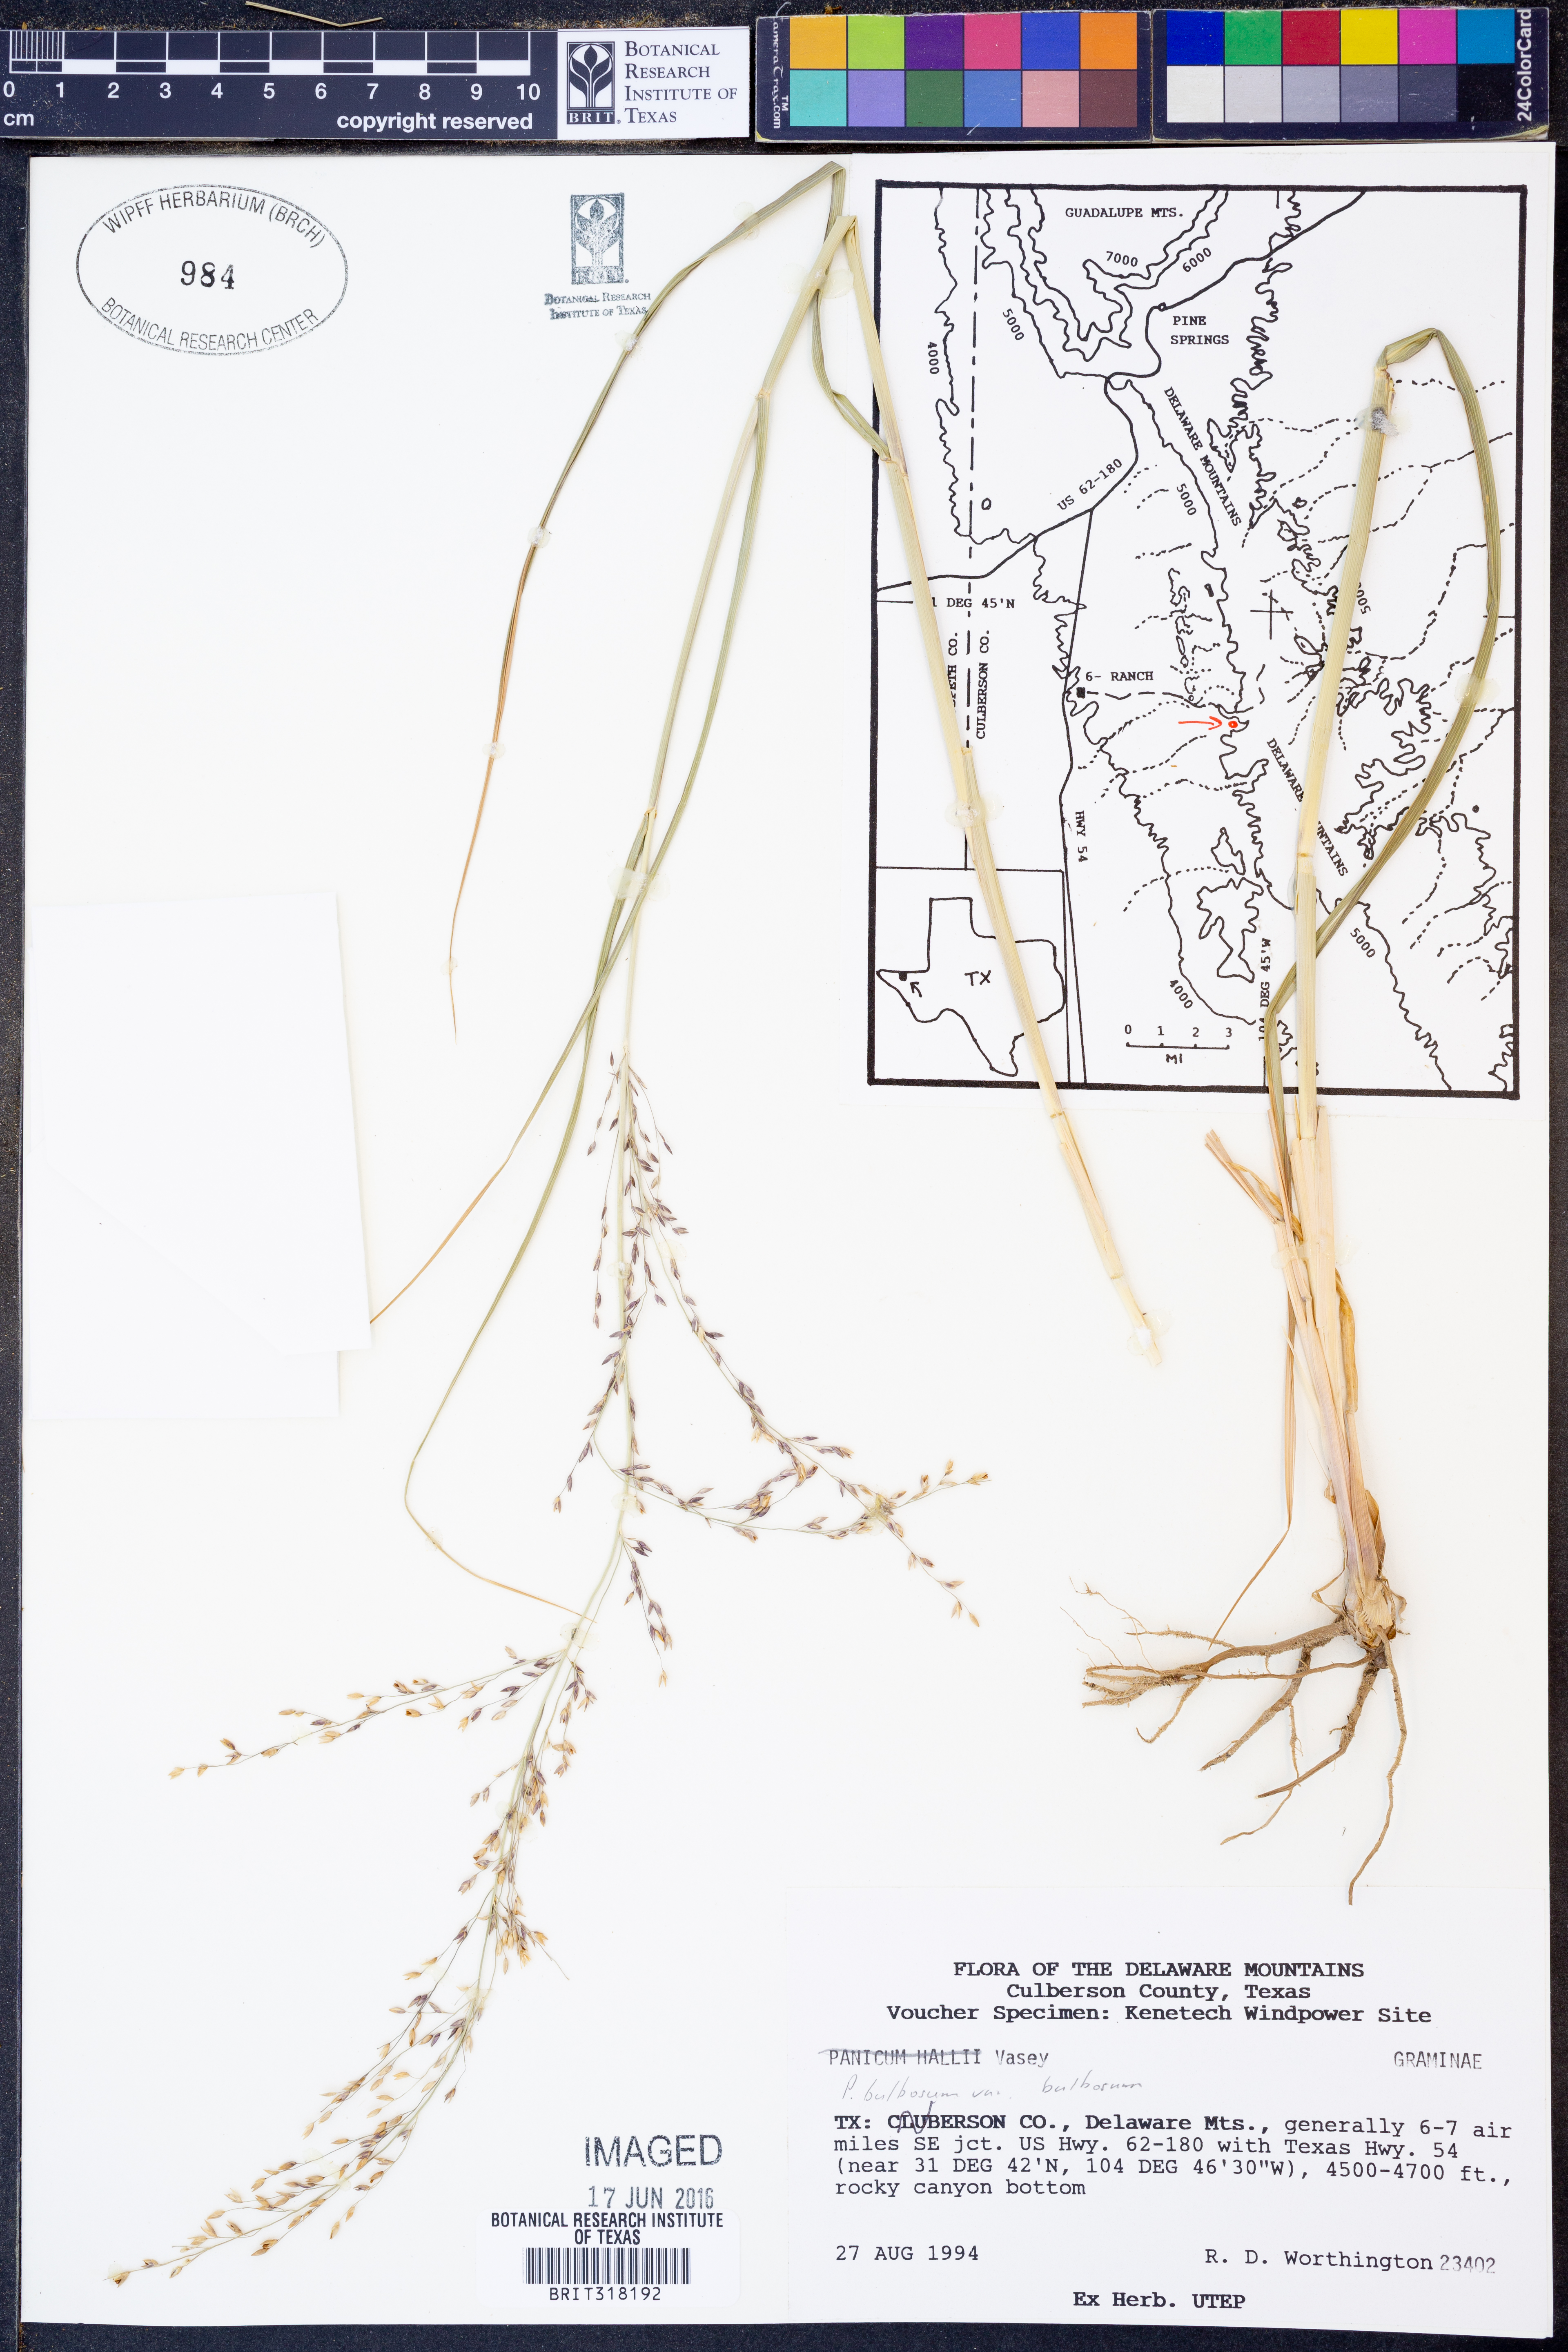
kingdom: Plantae
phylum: Tracheophyta
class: Liliopsida
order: Poales
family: Poaceae
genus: Zuloagaea
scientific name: Zuloagaea bulbosa
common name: Canyon panic grass
